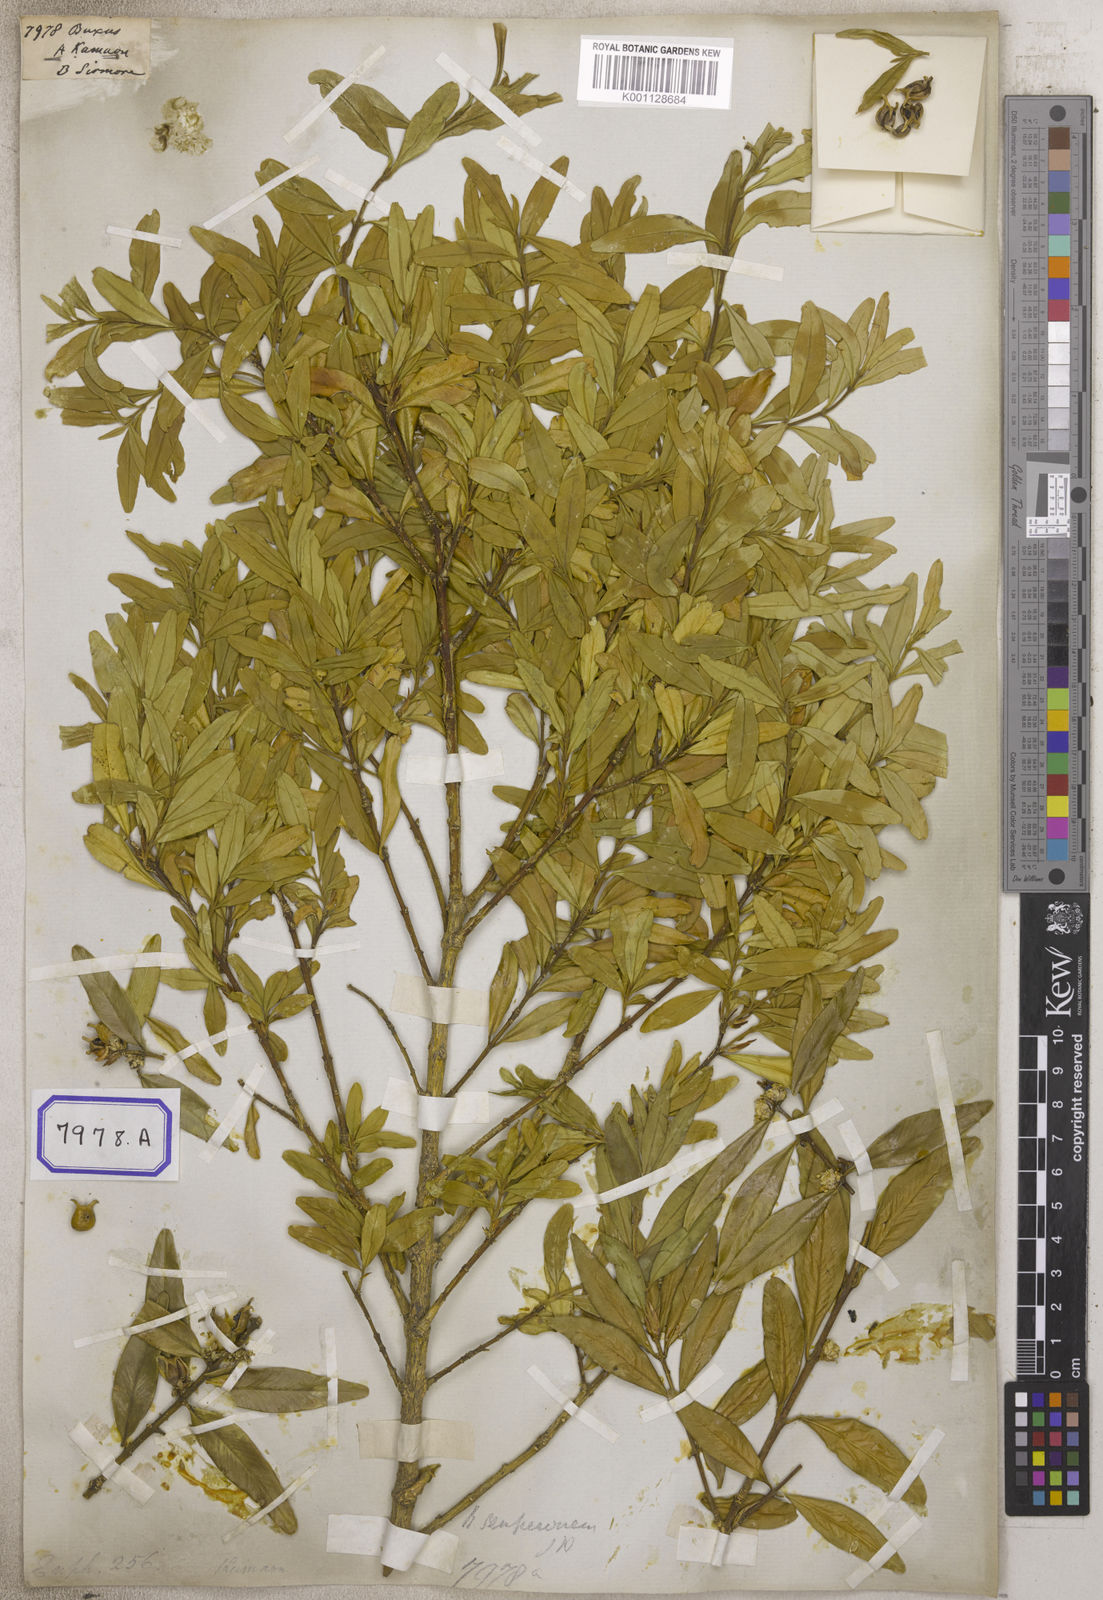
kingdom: Plantae
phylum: Tracheophyta
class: Magnoliopsida
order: Buxales
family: Buxaceae
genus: Buxus
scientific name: Buxus
